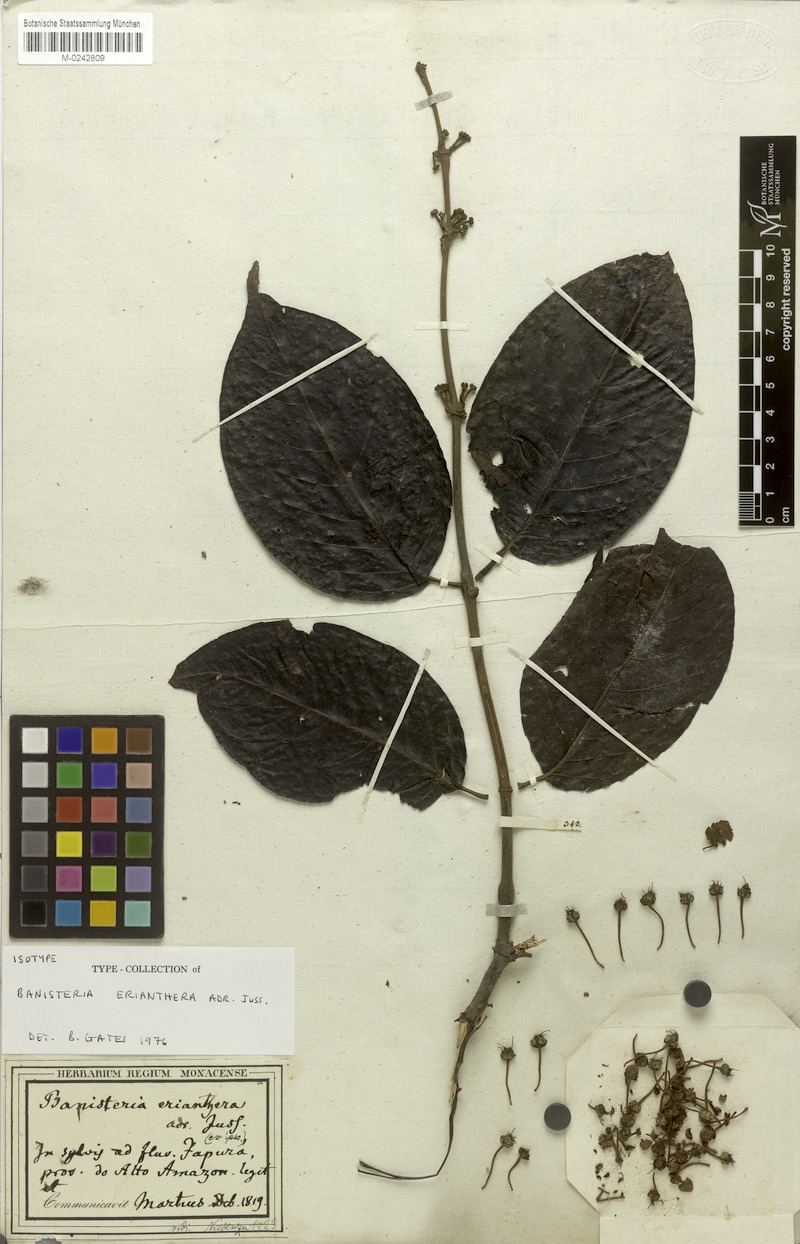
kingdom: Plantae
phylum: Tracheophyta
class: Magnoliopsida
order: Malpighiales
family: Malpighiaceae
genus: Diplopterys
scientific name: Diplopterys erianthera
